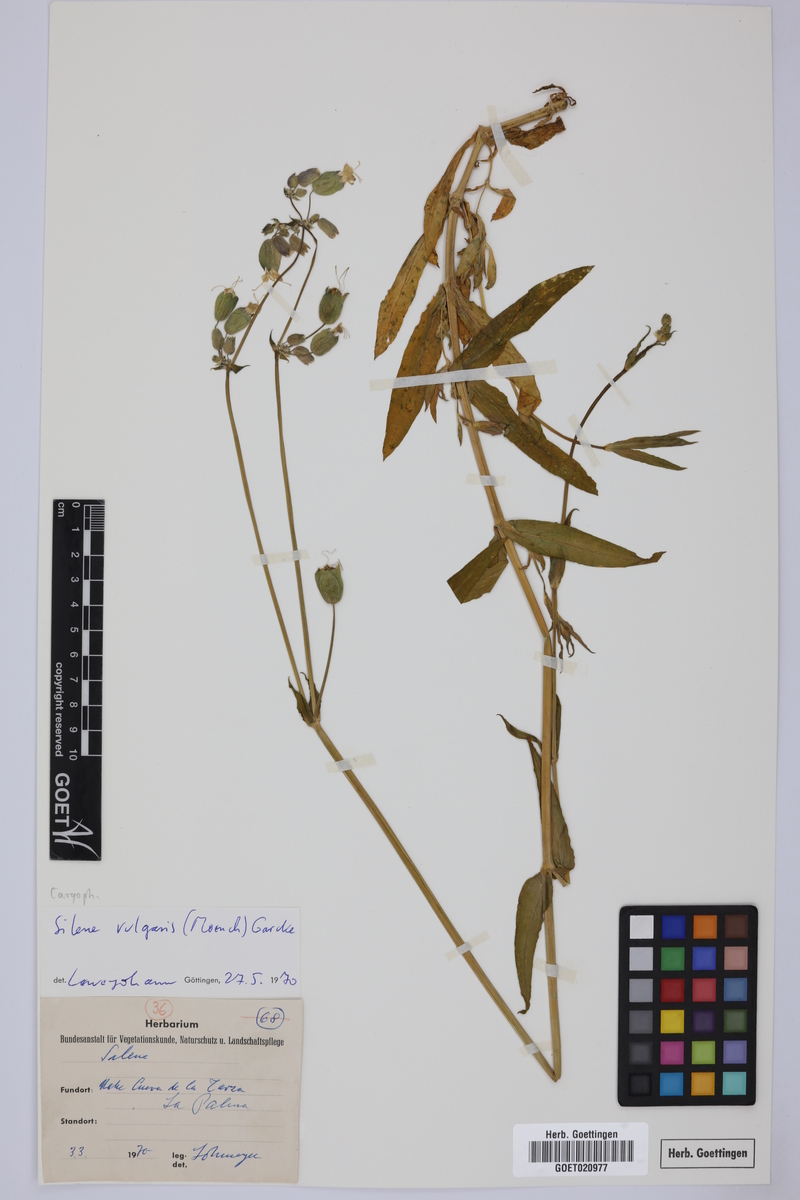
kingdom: Plantae
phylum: Tracheophyta
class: Magnoliopsida
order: Caryophyllales
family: Caryophyllaceae
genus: Silene
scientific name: Silene vulgaris
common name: Bladder campion
